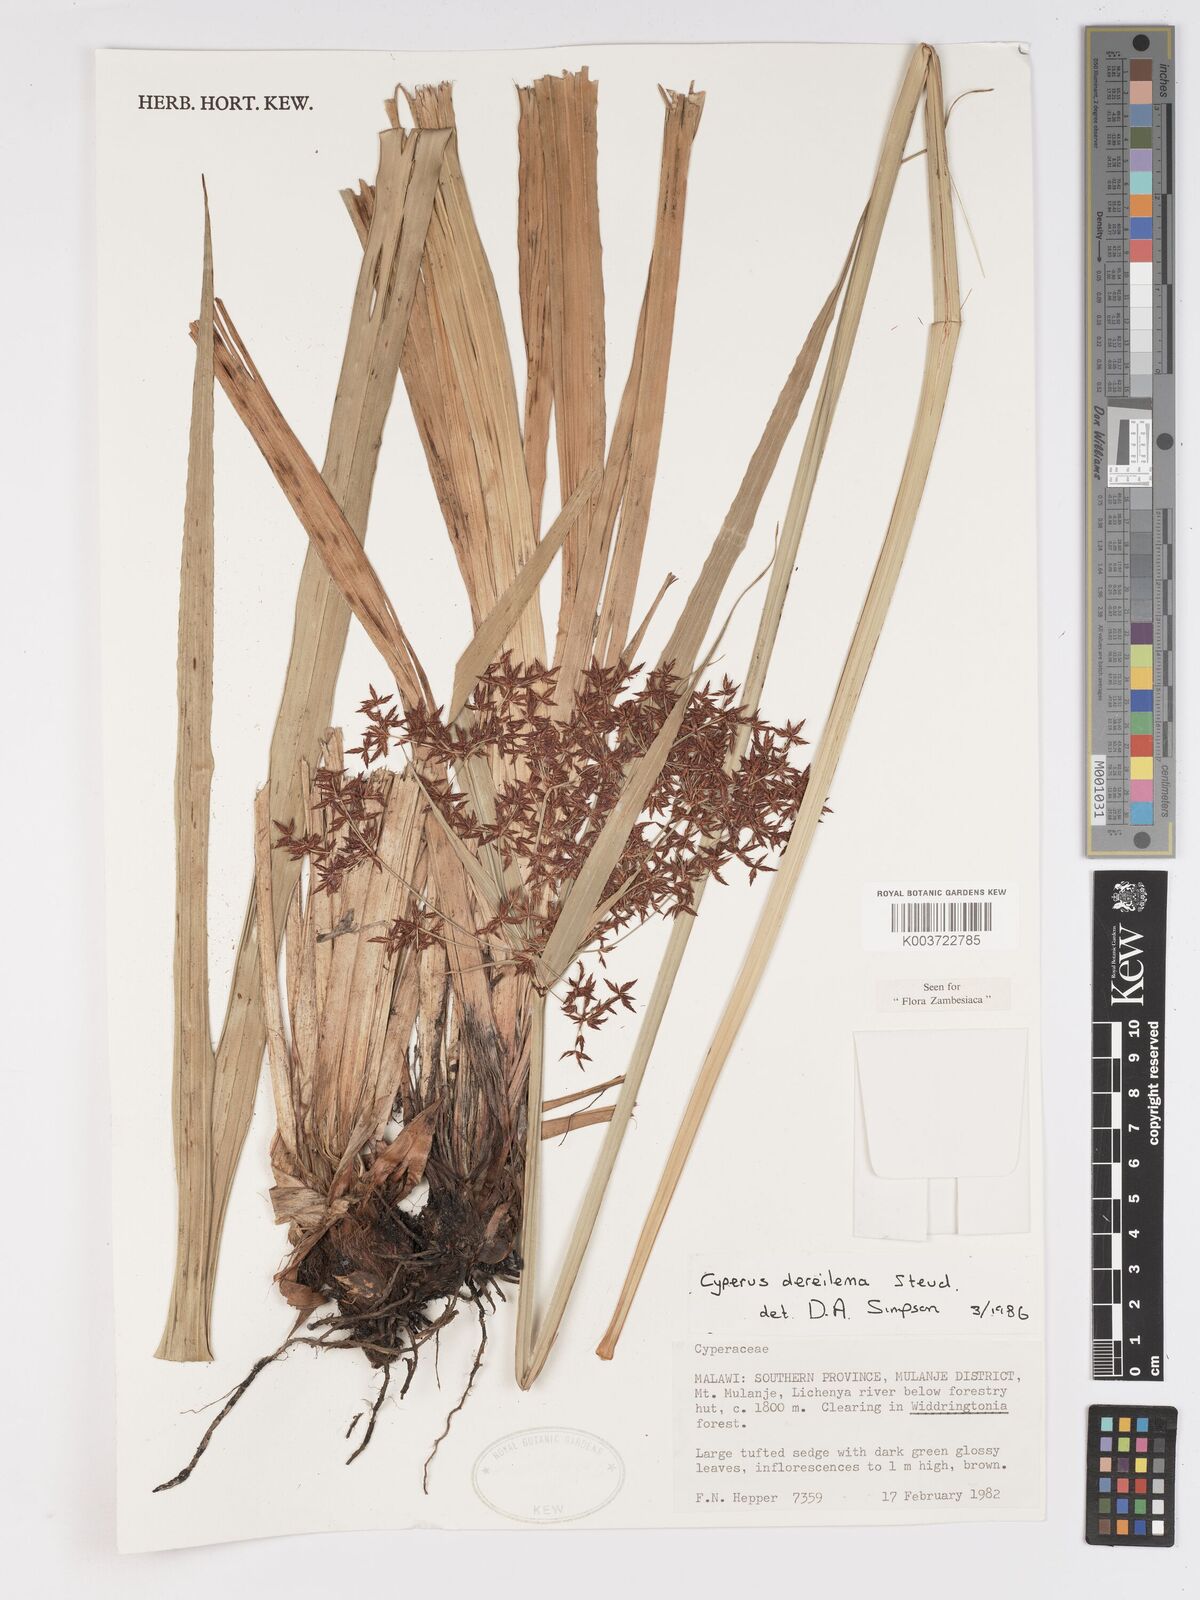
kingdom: Plantae
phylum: Tracheophyta
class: Liliopsida
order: Poales
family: Cyperaceae
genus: Cyperus
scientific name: Cyperus derreilema
